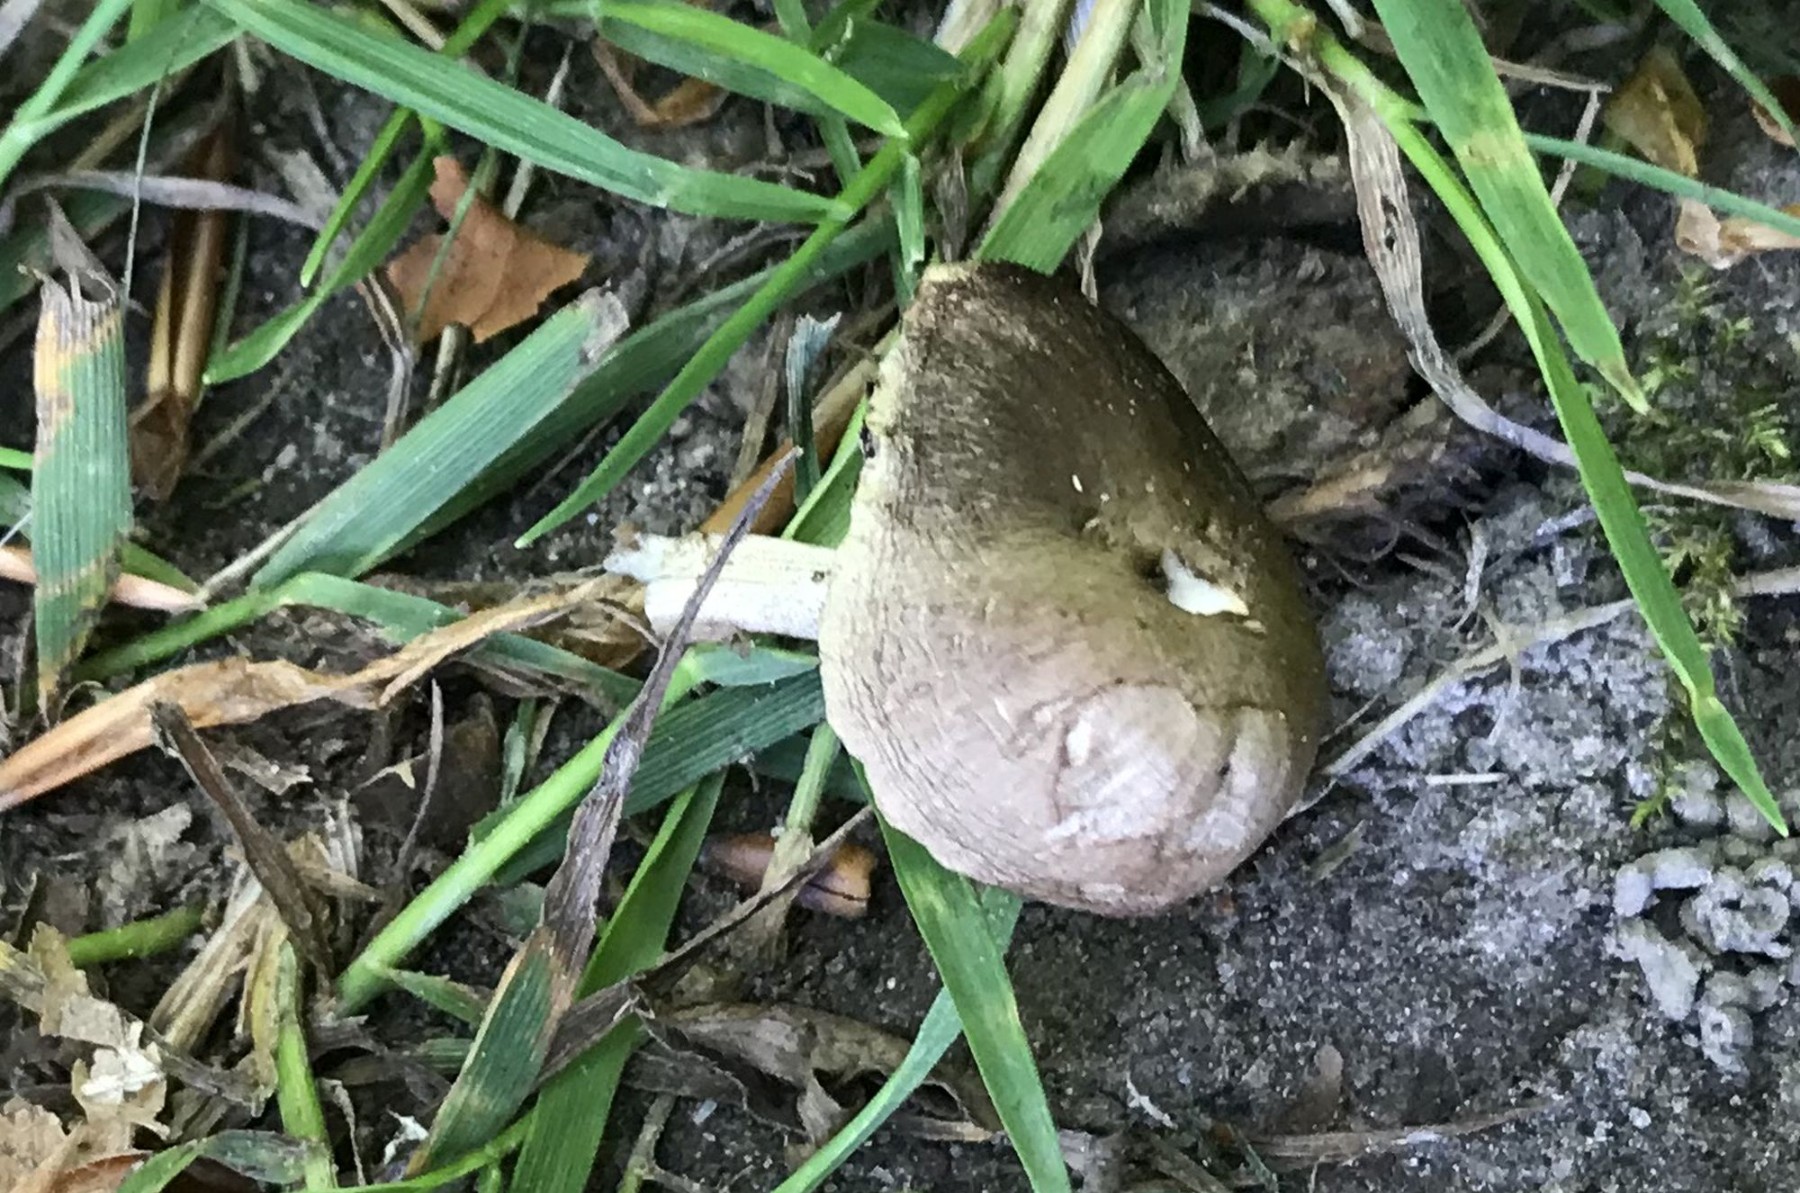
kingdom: Fungi
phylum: Basidiomycota
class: Agaricomycetes
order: Agaricales
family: Psathyrellaceae
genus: Psathyrella
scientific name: Psathyrella
